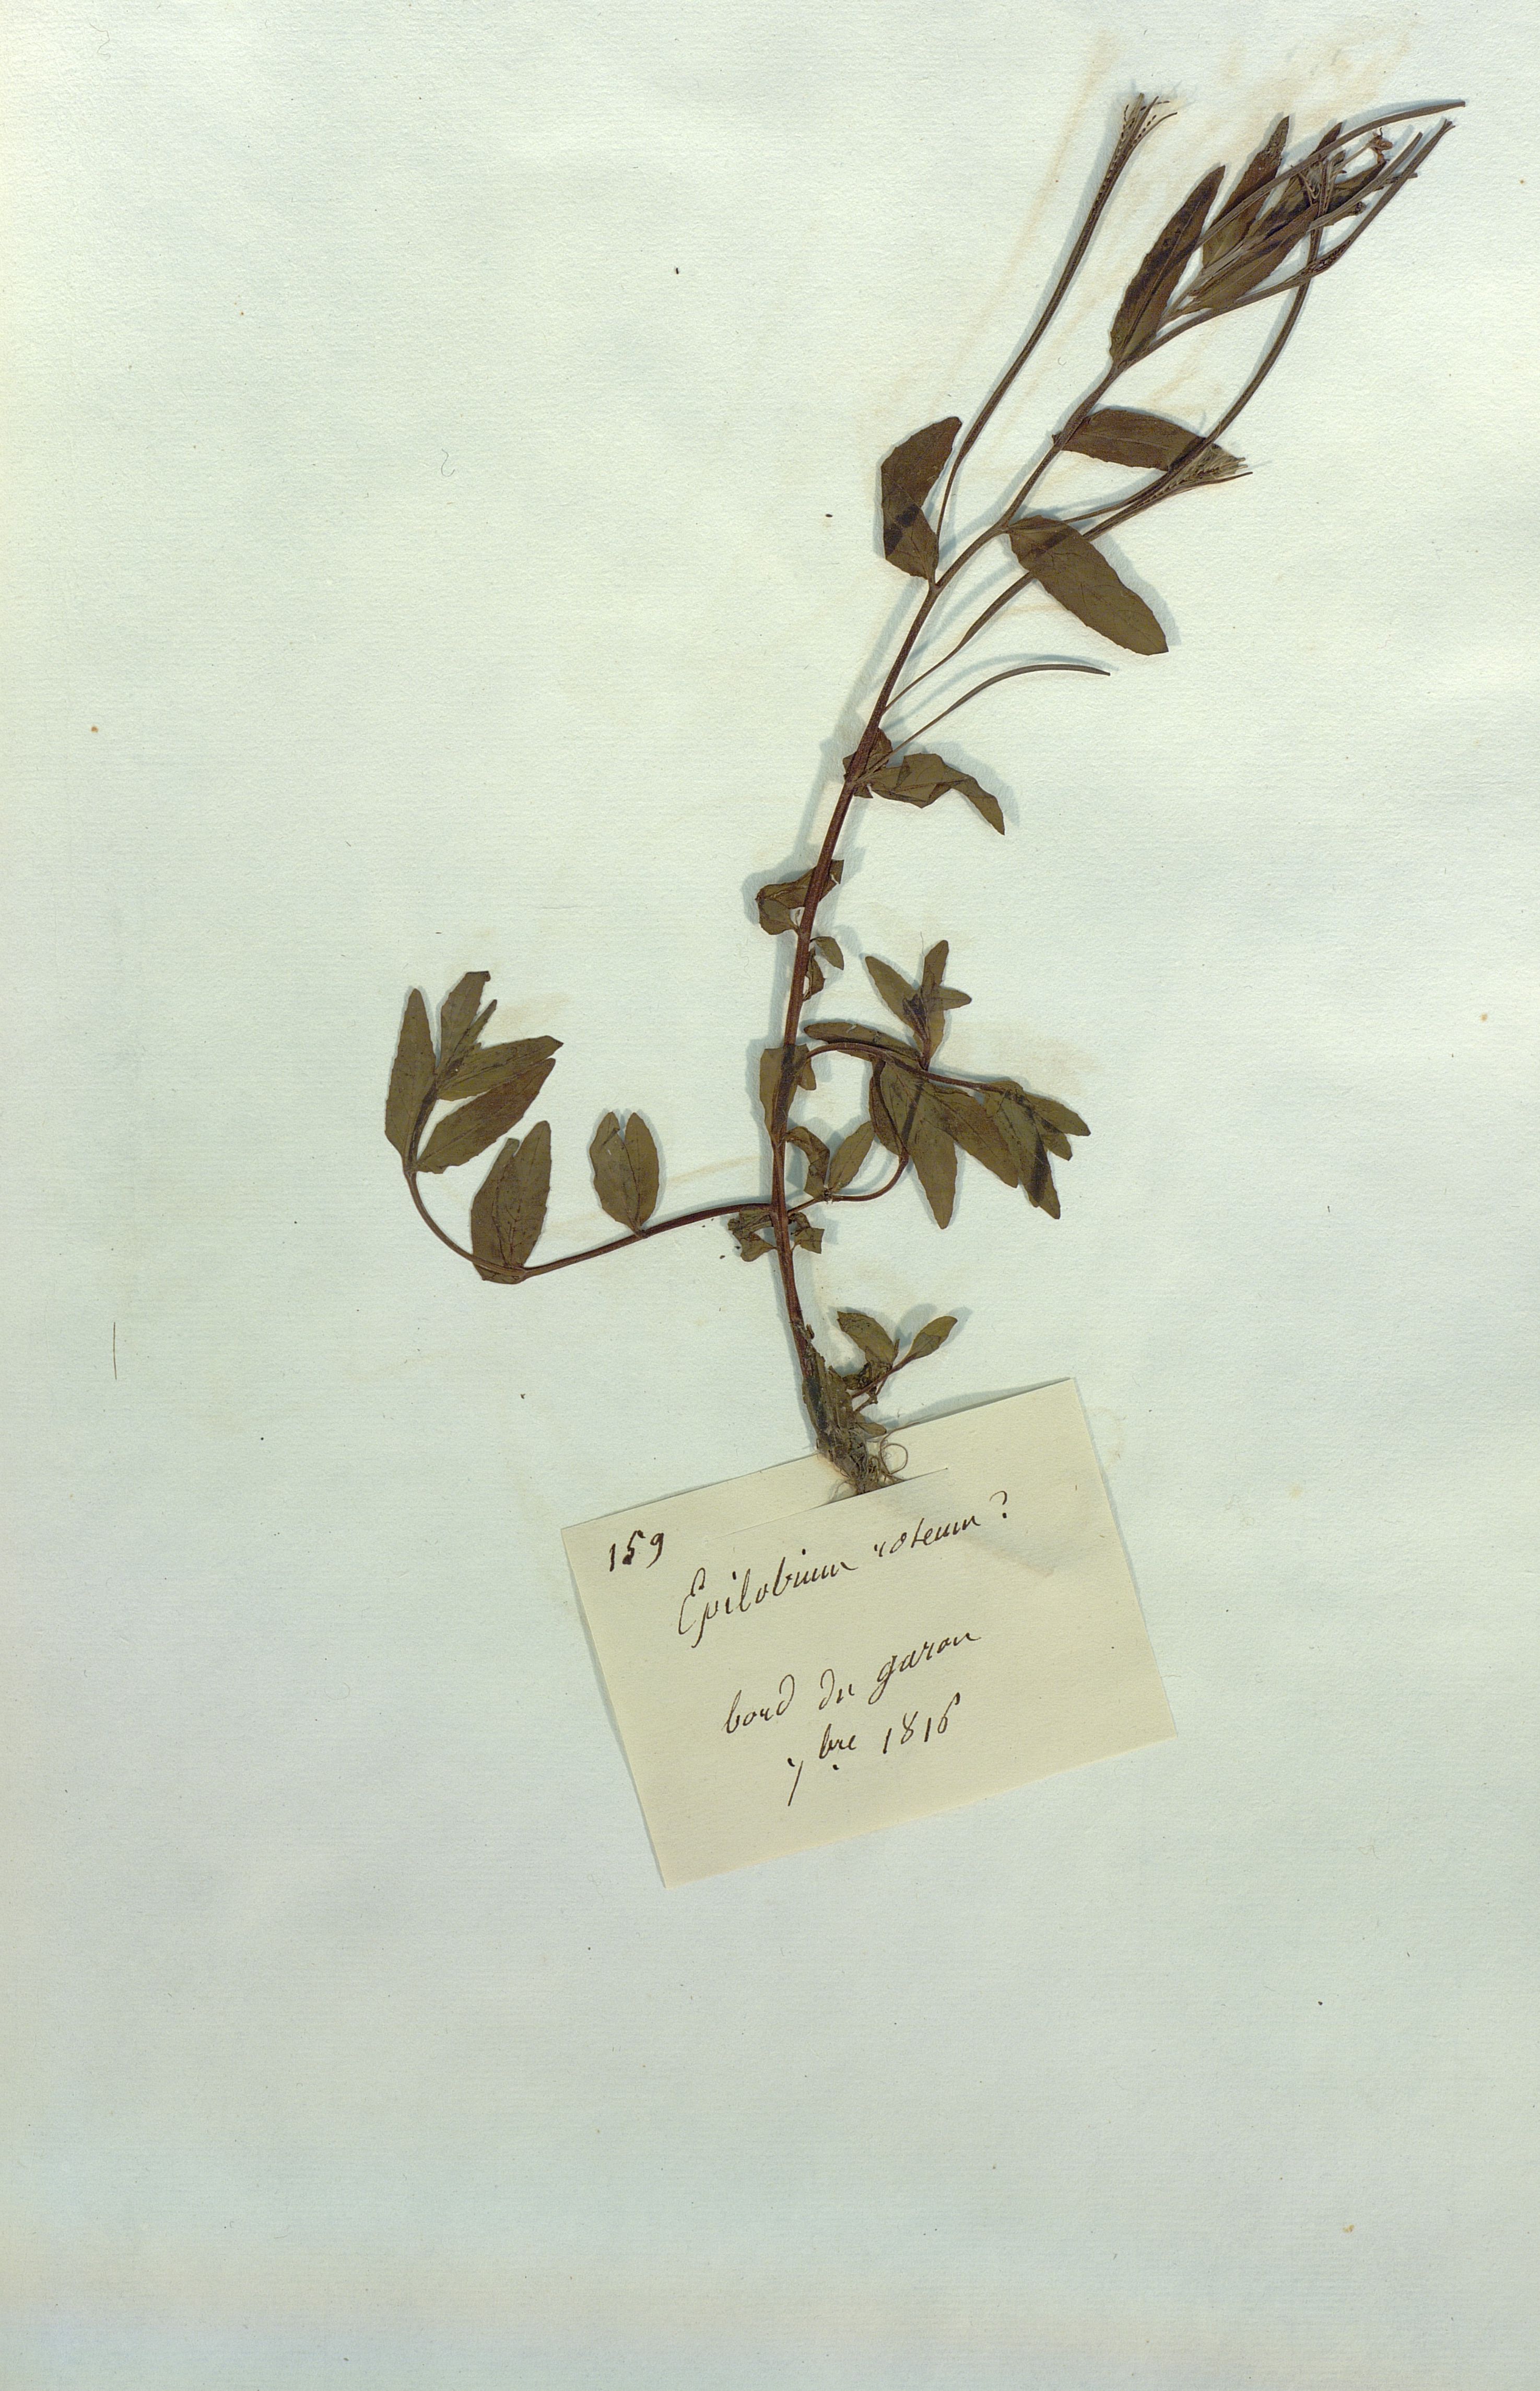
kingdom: Plantae
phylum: Tracheophyta
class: Magnoliopsida
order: Myrtales
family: Onagraceae
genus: Epilobium
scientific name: Epilobium roseum
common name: Pale willowherb
